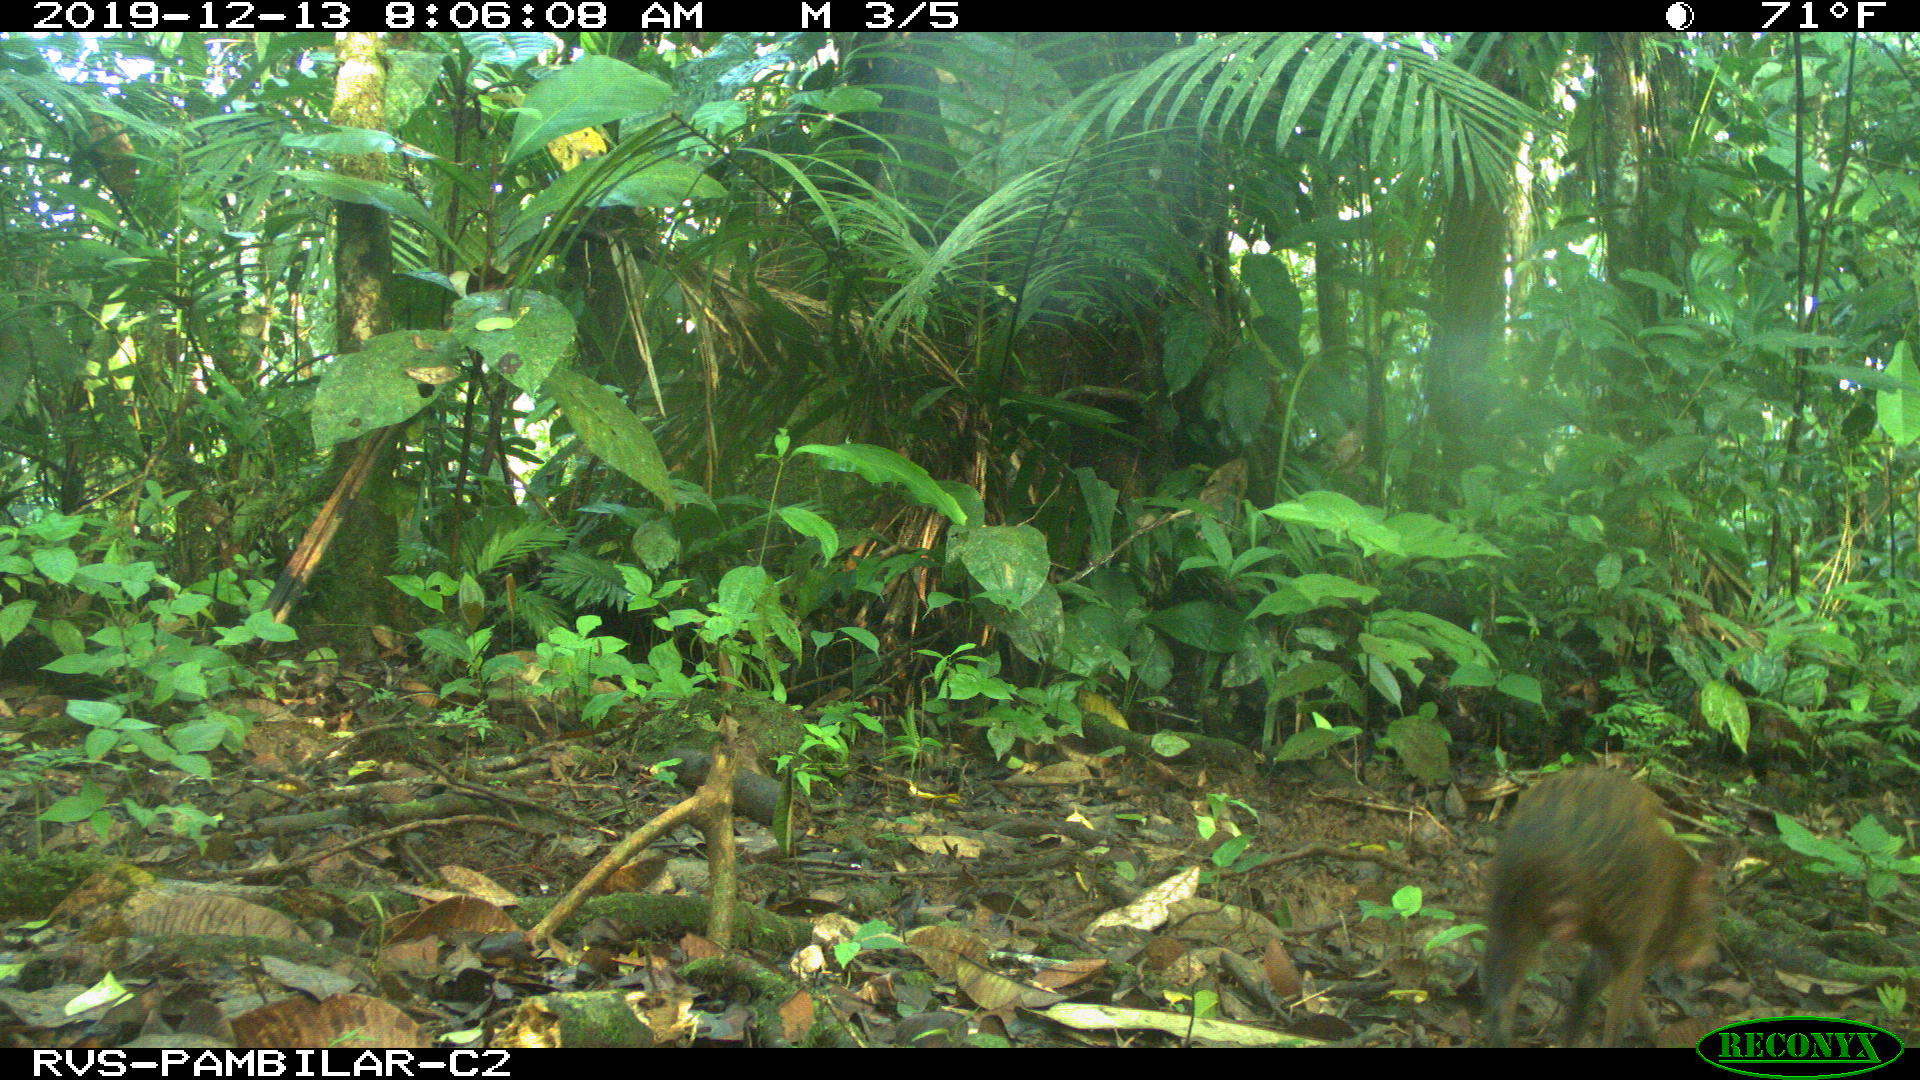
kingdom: Animalia
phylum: Chordata
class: Mammalia
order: Rodentia
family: Dasyproctidae
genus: Dasyprocta
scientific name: Dasyprocta punctata
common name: Central american agouti
